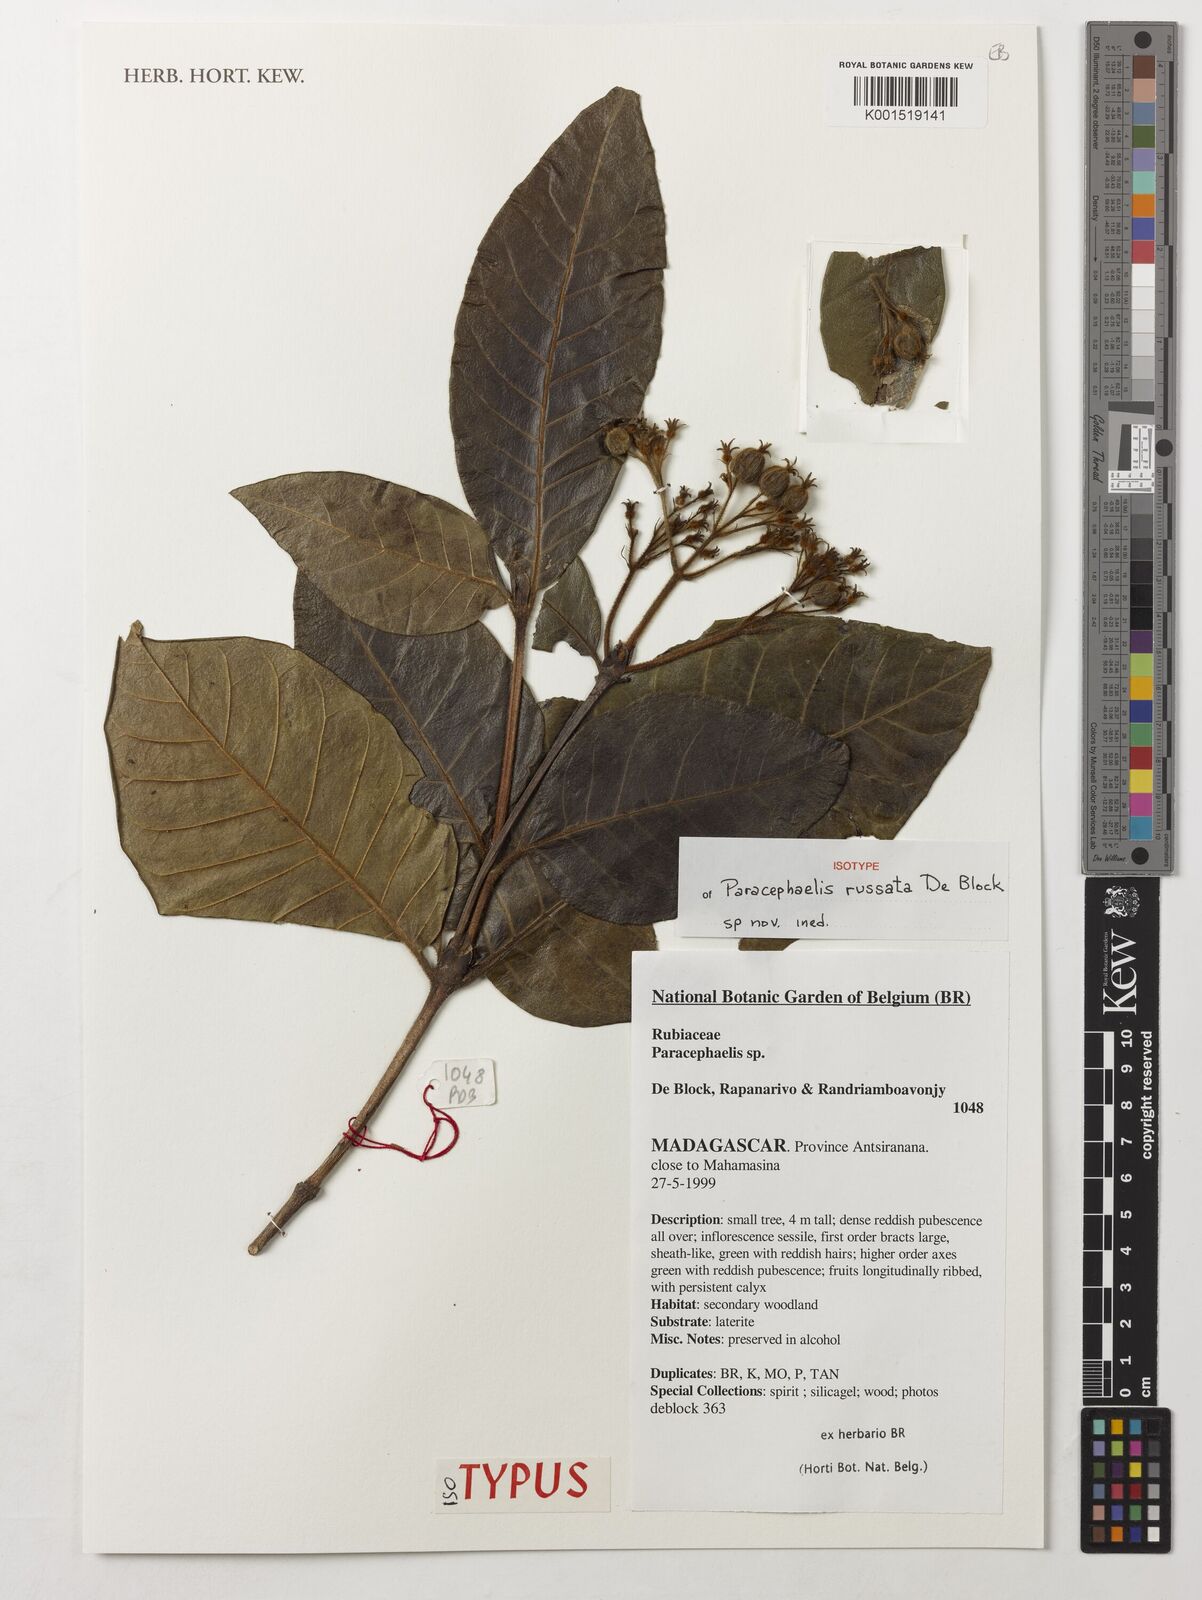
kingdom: Plantae
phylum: Tracheophyta
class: Magnoliopsida
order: Gentianales
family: Rubiaceae
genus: Paracephaelis
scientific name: Paracephaelis
